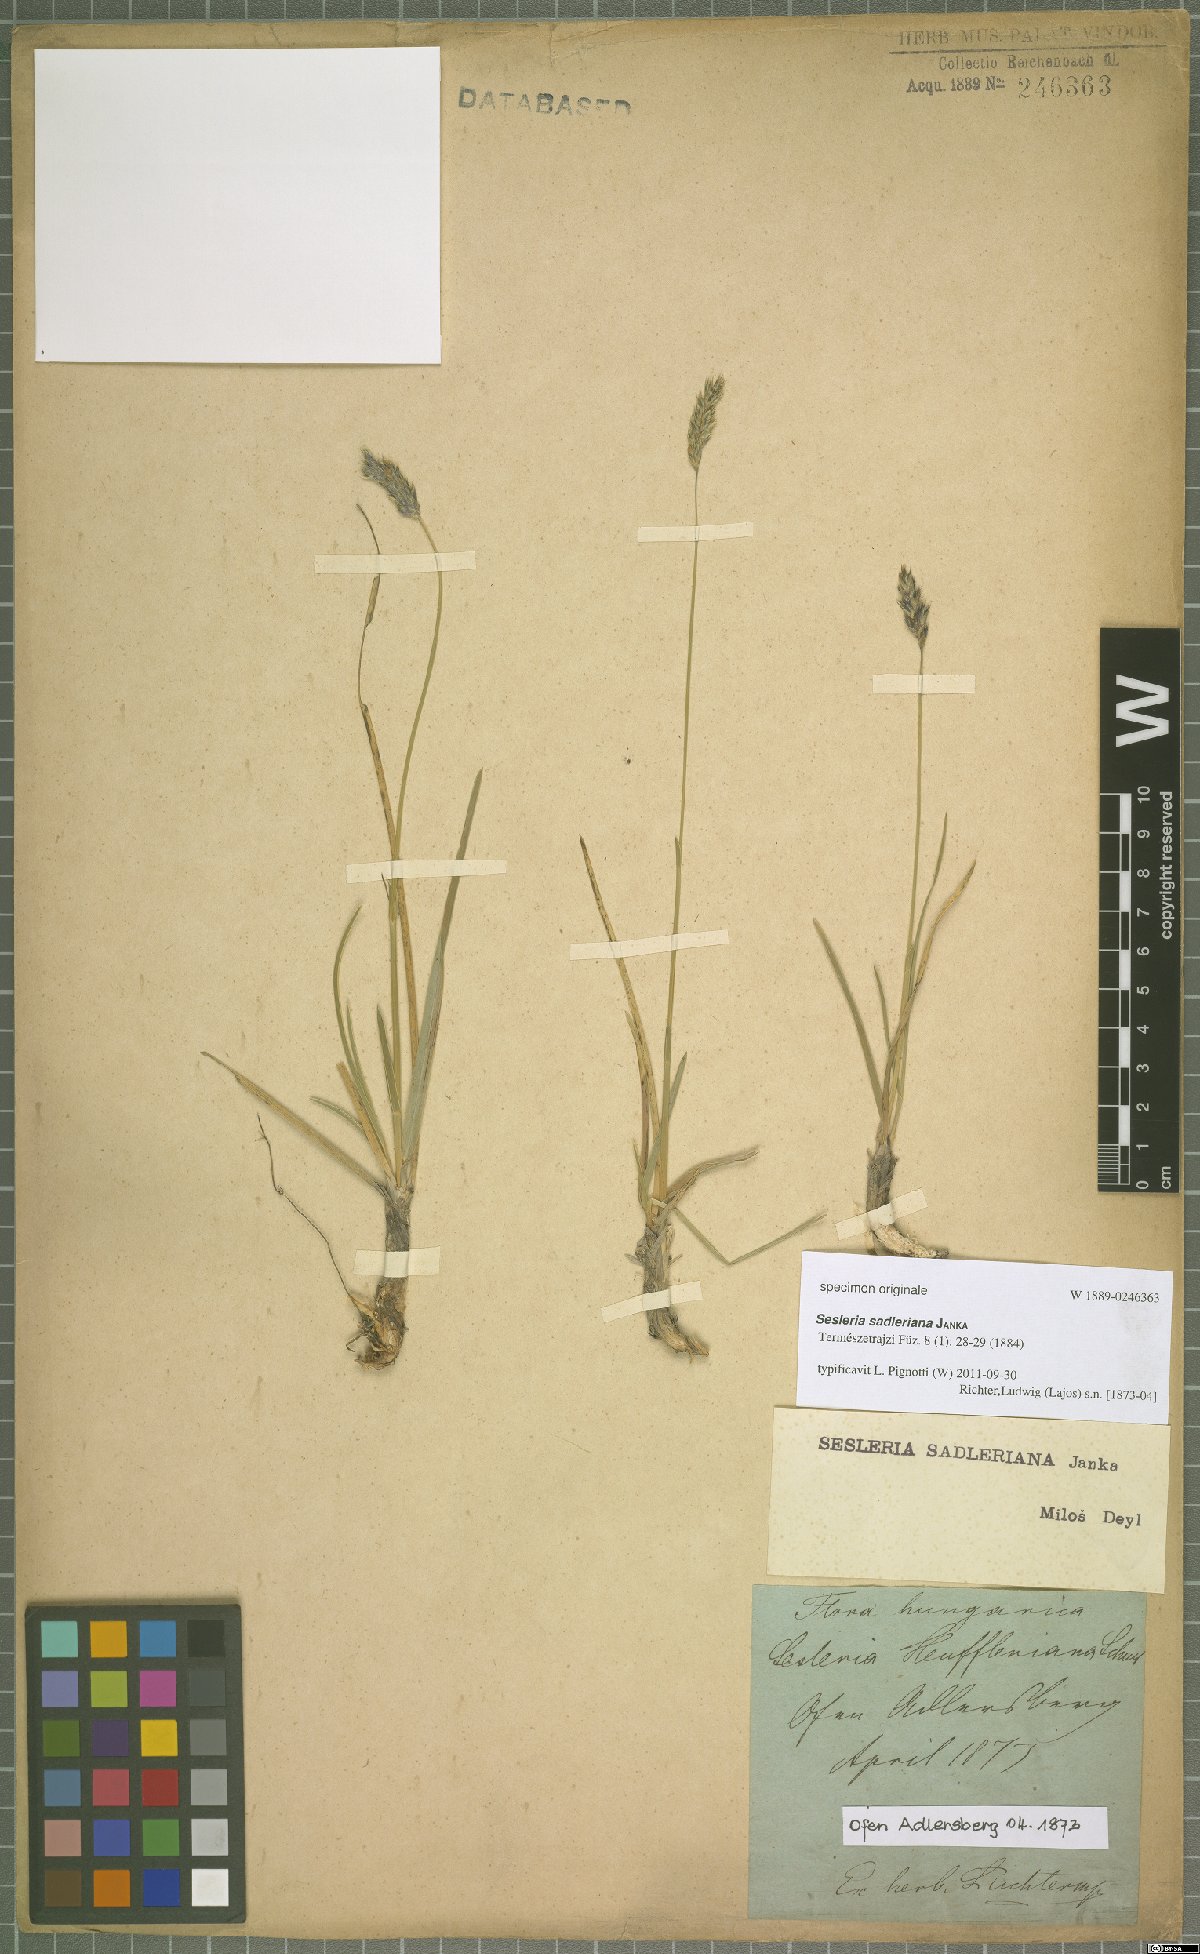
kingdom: Plantae
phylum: Tracheophyta
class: Liliopsida
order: Poales
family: Poaceae
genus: Sesleria
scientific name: Sesleria sadleriana
